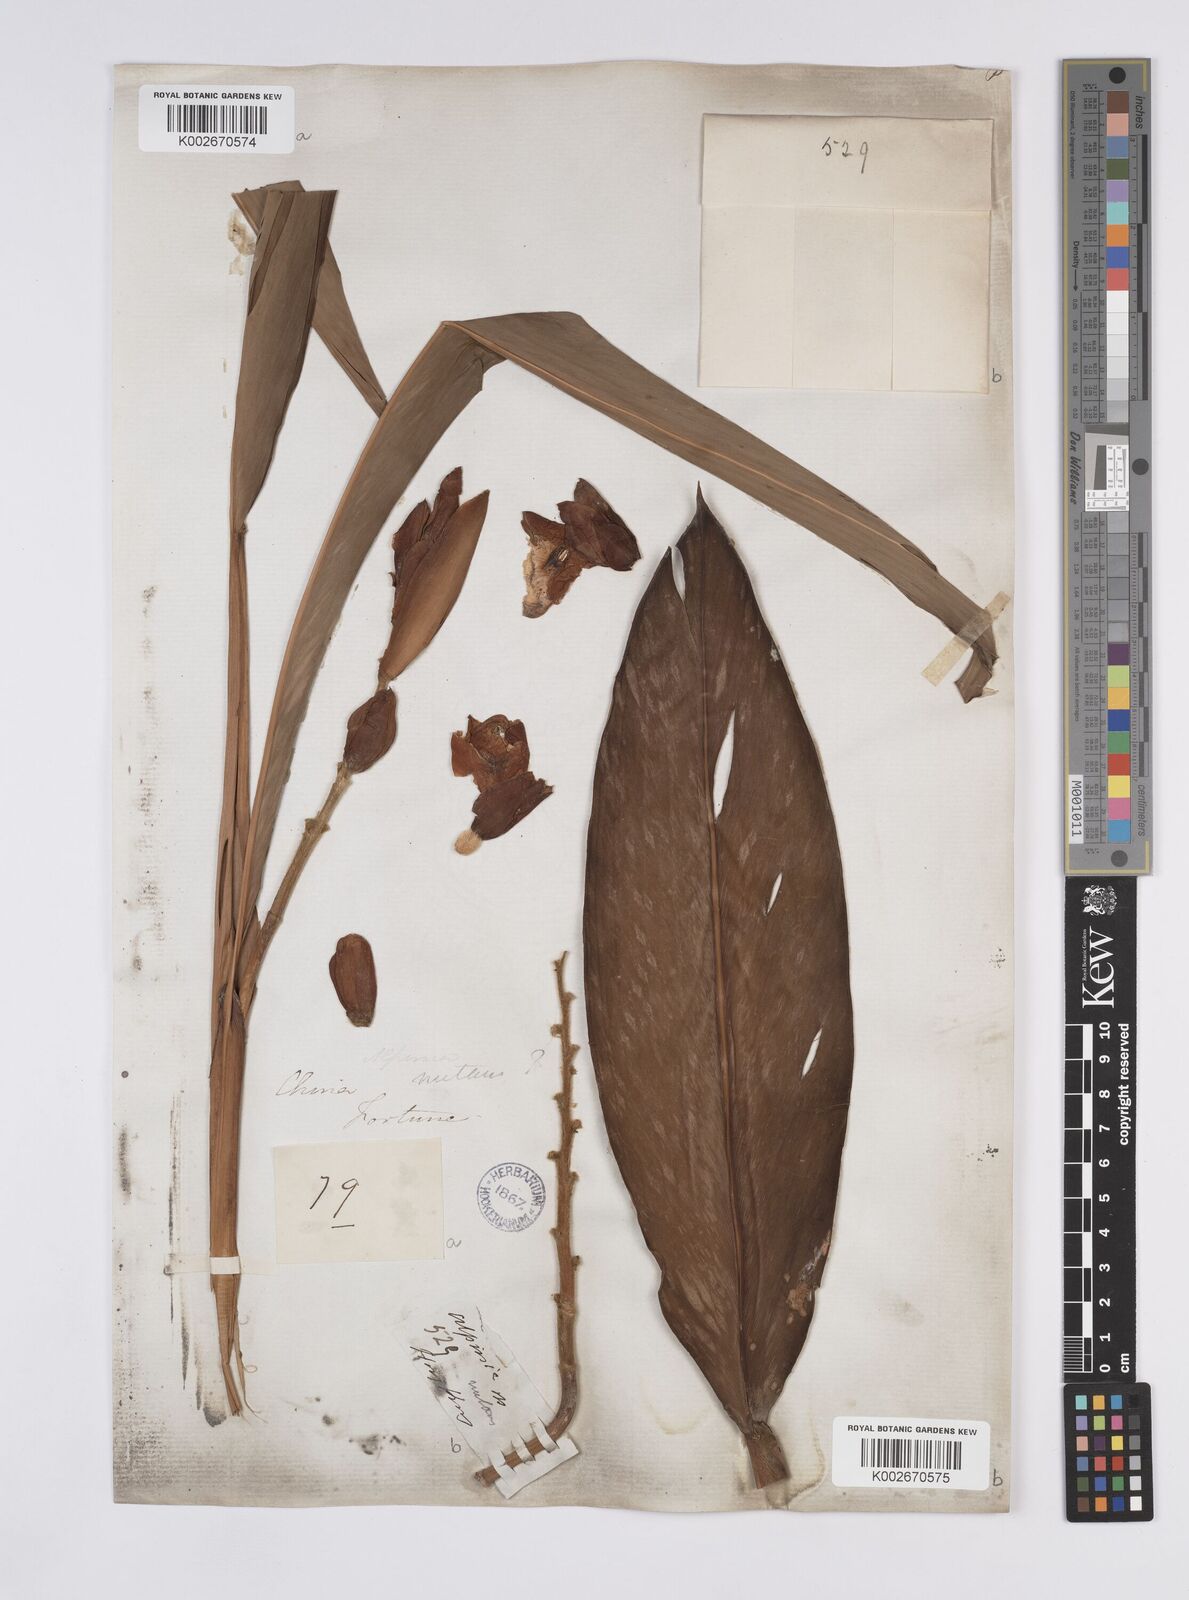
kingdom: Plantae
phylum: Tracheophyta
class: Liliopsida
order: Zingiberales
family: Zingiberaceae
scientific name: Zingiberaceae
